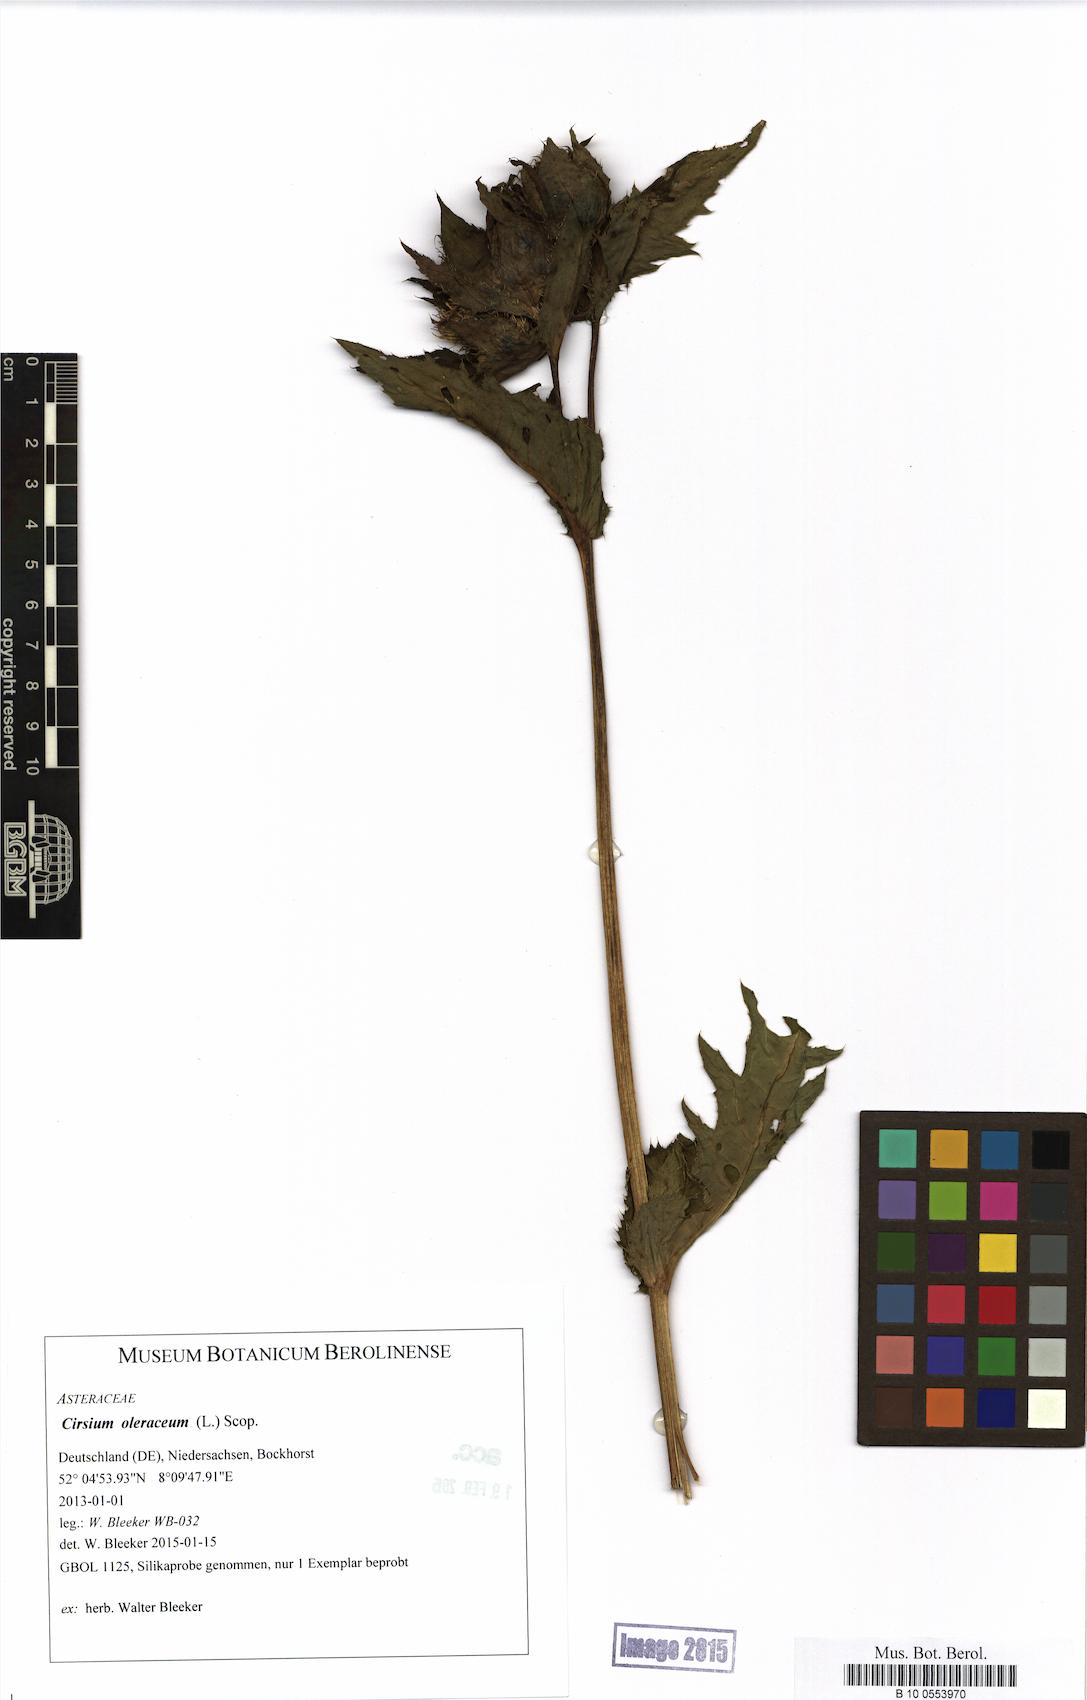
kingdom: Plantae
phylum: Tracheophyta
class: Magnoliopsida
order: Asterales
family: Asteraceae
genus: Cirsium
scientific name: Cirsium oleraceum
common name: Cabbage thistle
